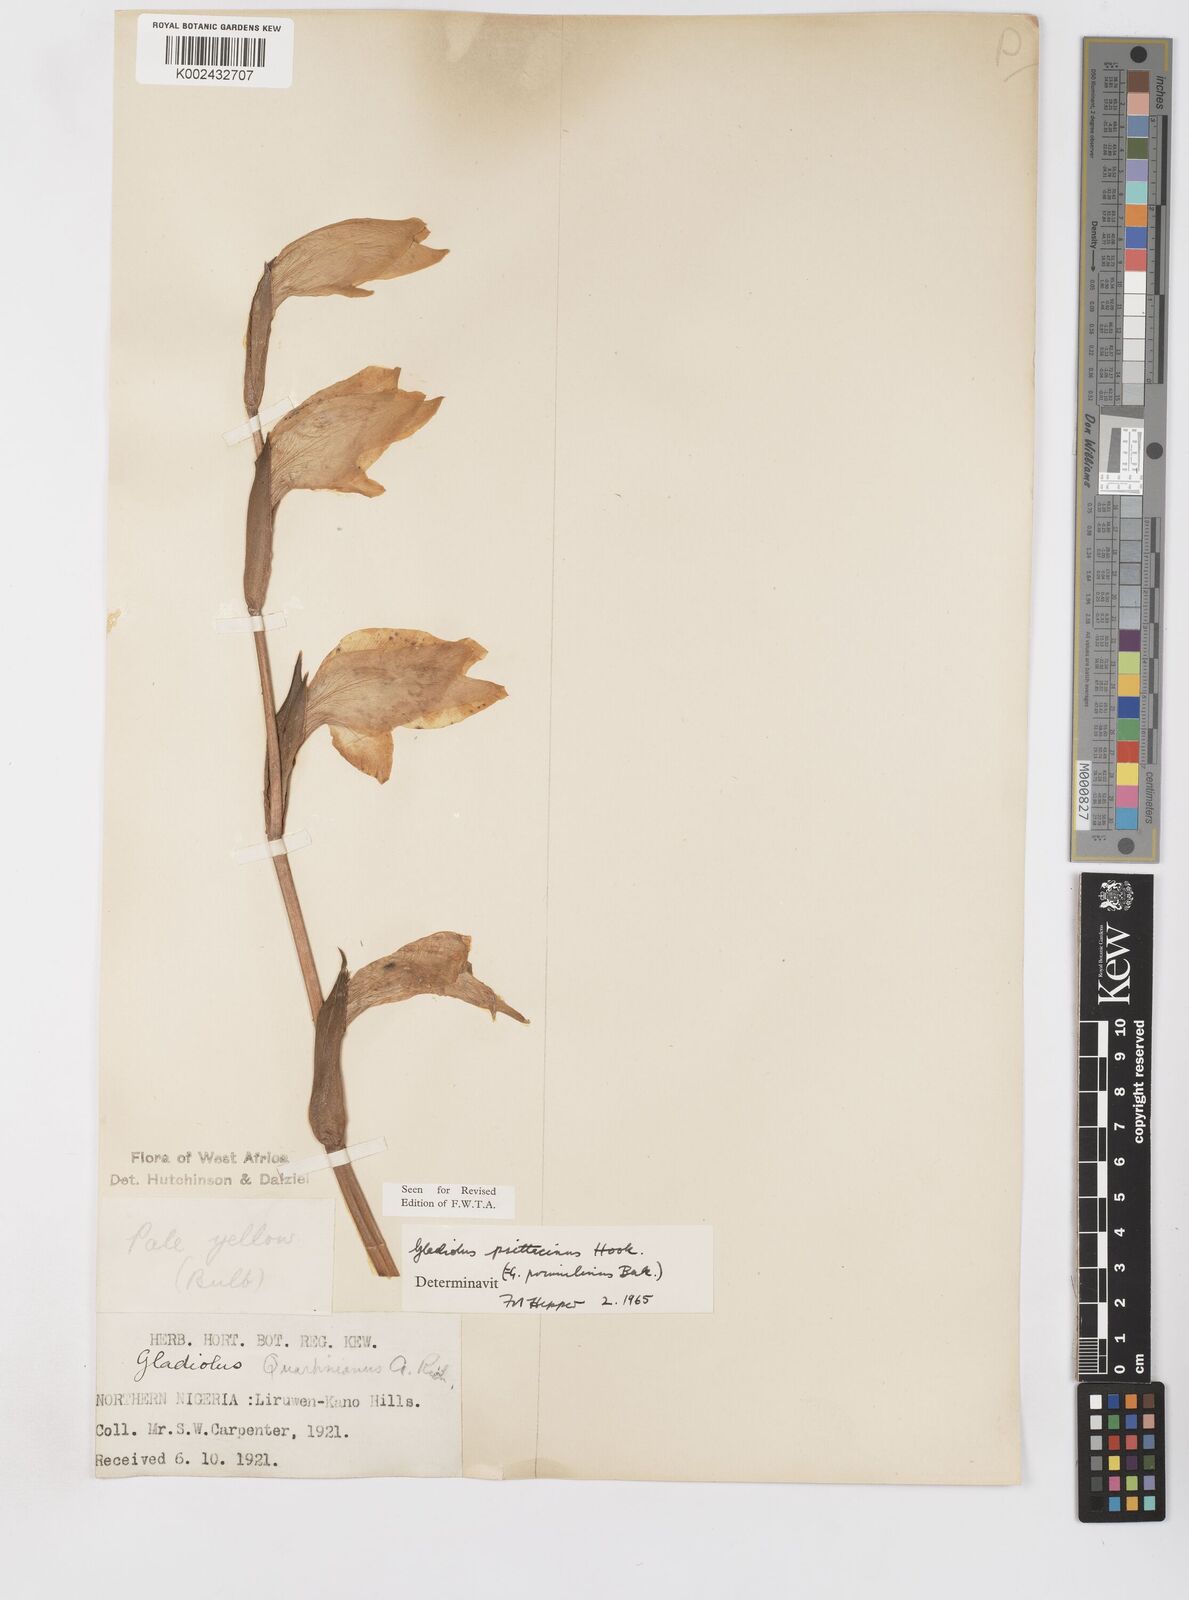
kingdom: Plantae
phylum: Tracheophyta
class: Liliopsida
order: Asparagales
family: Iridaceae
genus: Gladiolus
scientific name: Gladiolus dalenii
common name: Cornflag
